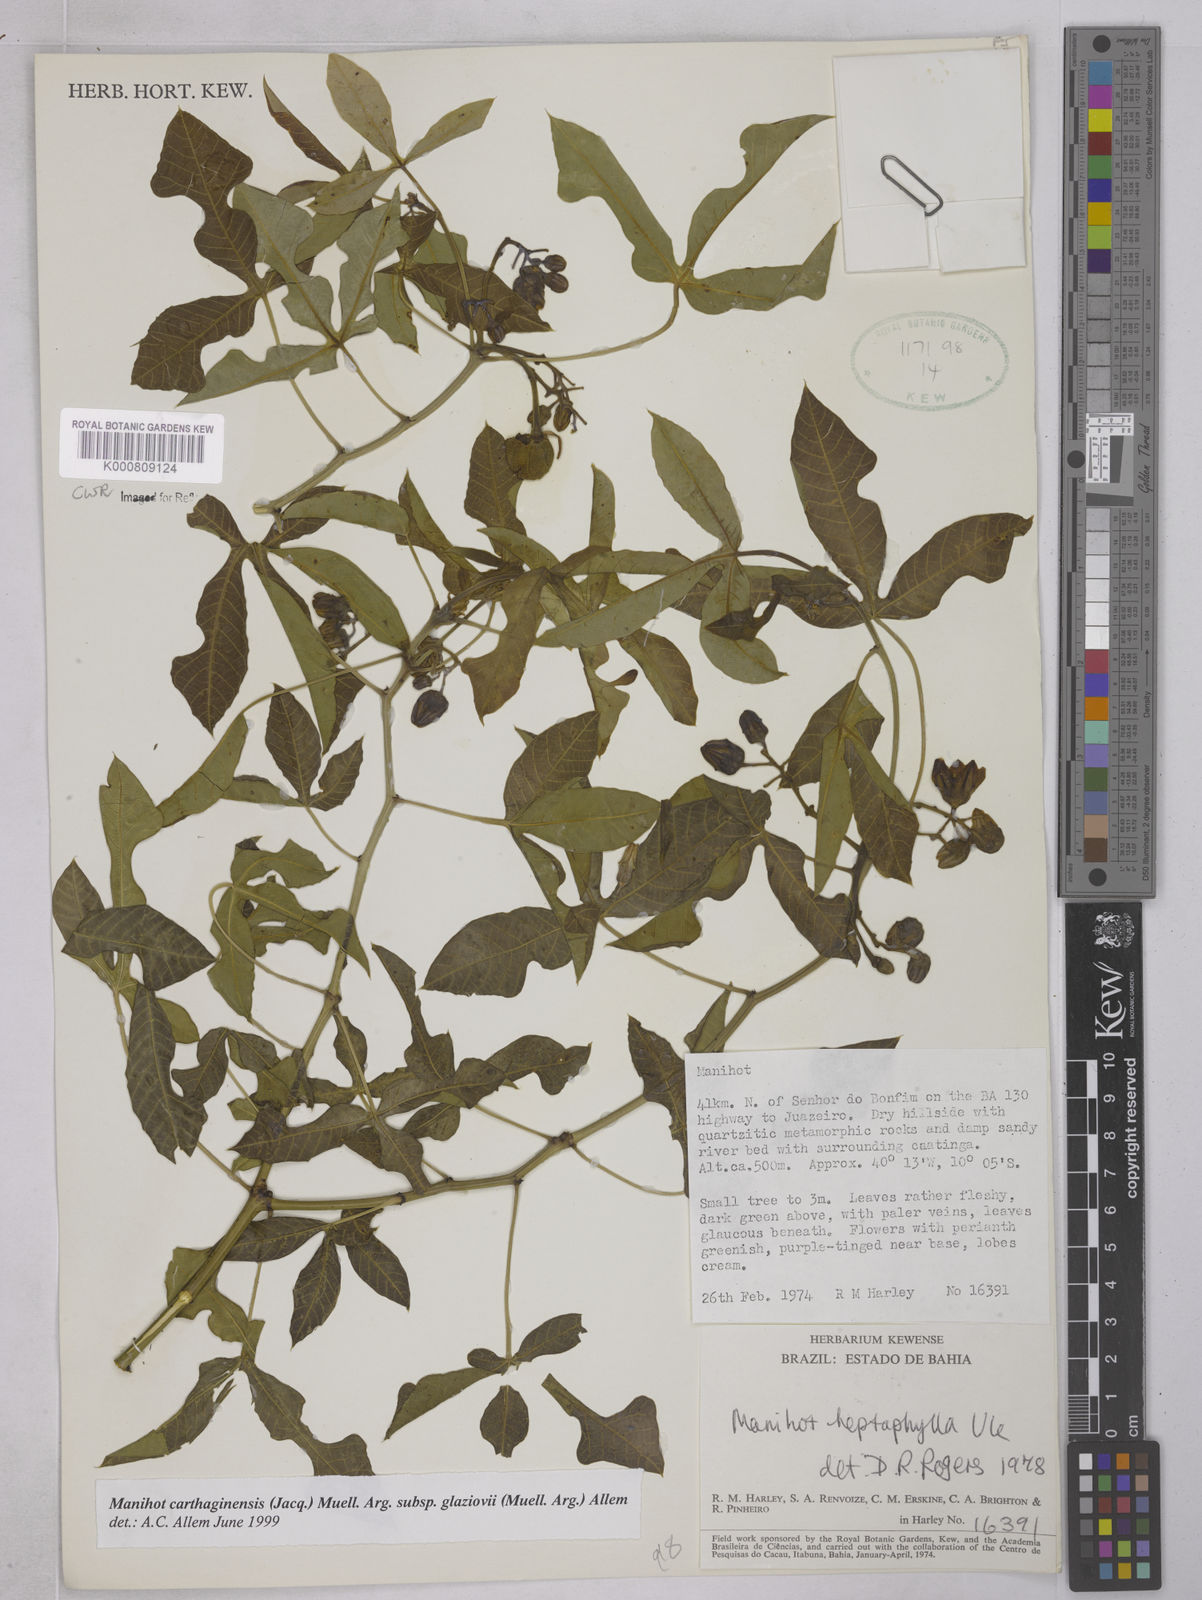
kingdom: Plantae
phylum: Tracheophyta
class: Magnoliopsida
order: Malpighiales
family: Euphorbiaceae
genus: Manihot
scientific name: Manihot
